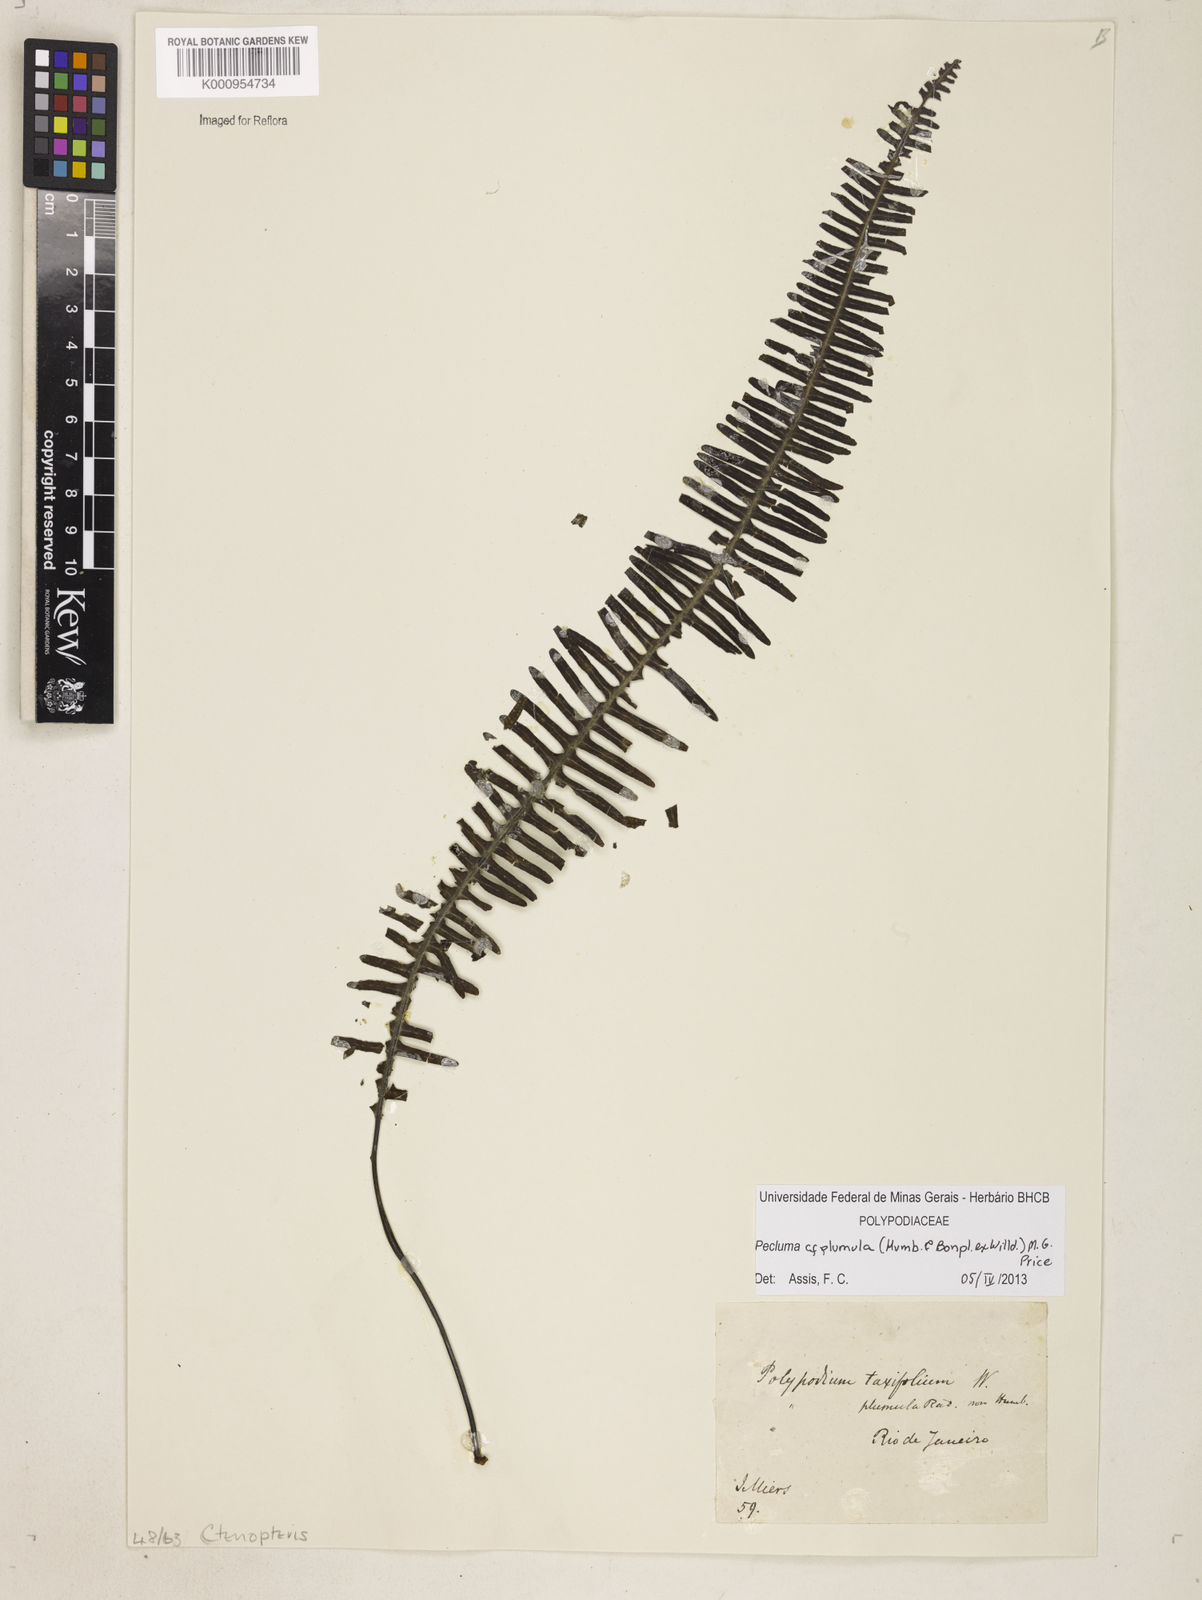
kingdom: Plantae
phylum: Tracheophyta
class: Polypodiopsida
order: Polypodiales
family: Polypodiaceae
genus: Pecluma
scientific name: Pecluma plumula
